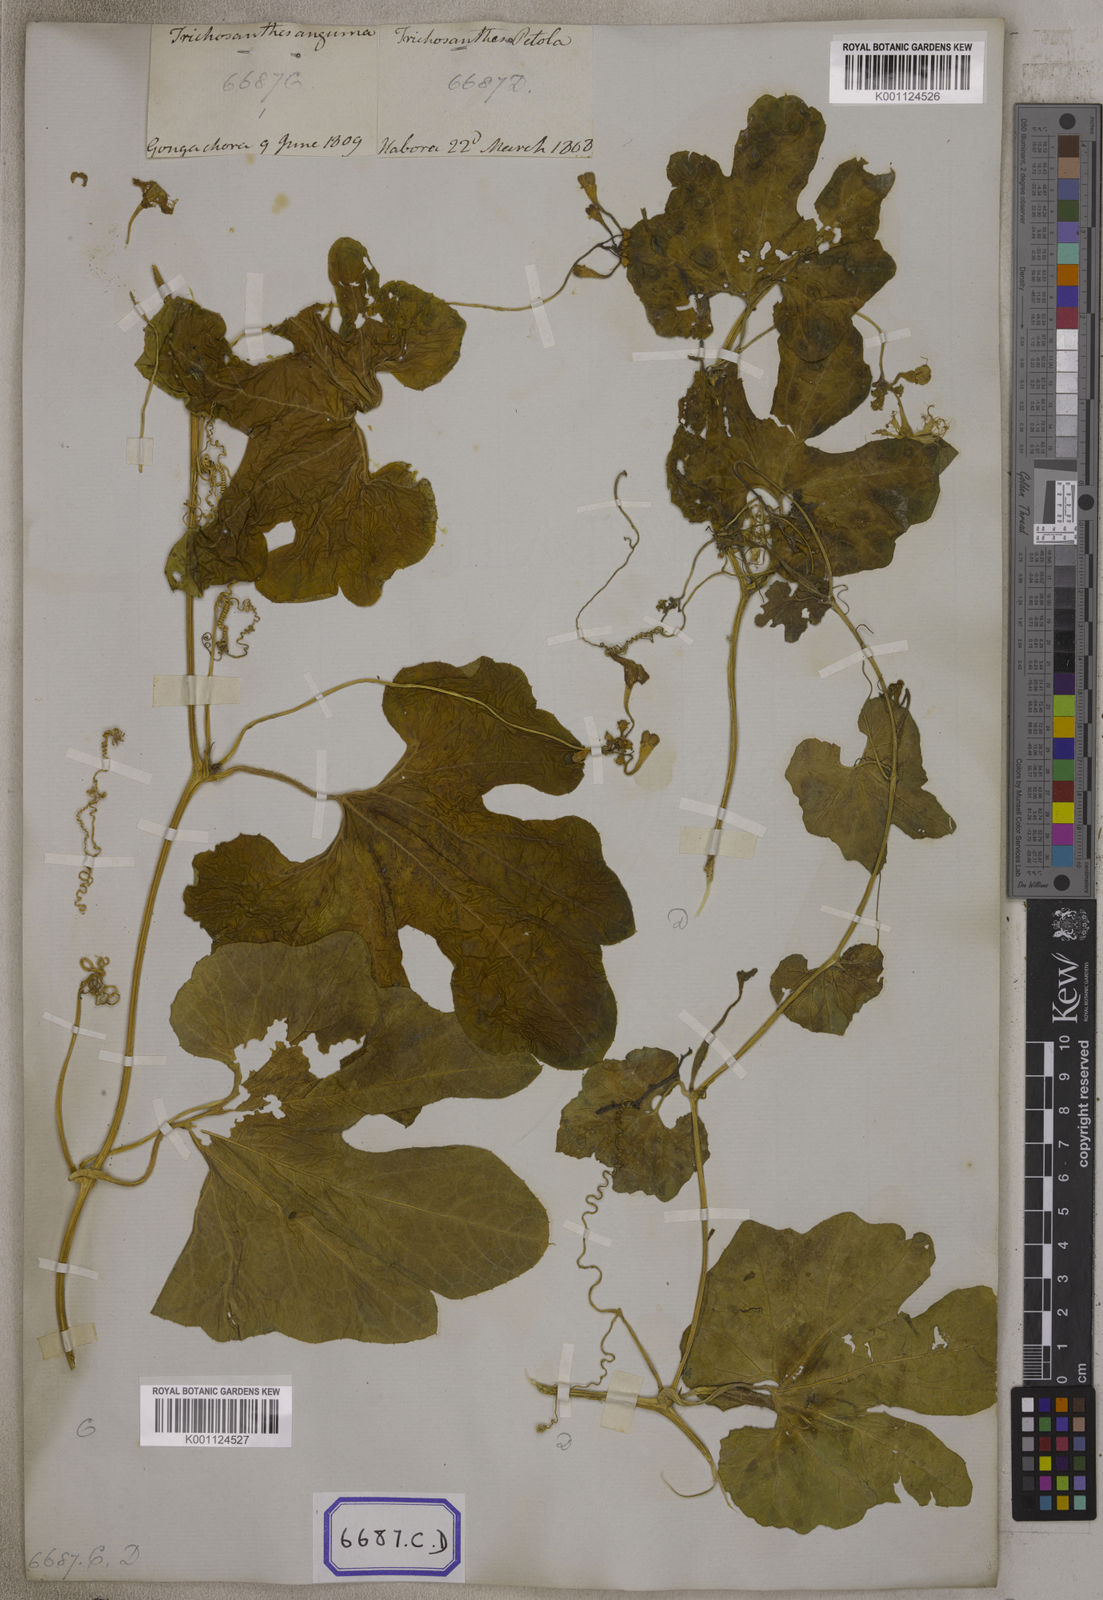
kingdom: Plantae
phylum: Tracheophyta
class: Magnoliopsida
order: Cucurbitales
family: Cucurbitaceae
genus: Trichosanthes
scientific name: Trichosanthes cucumerina
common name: Snakegourd
